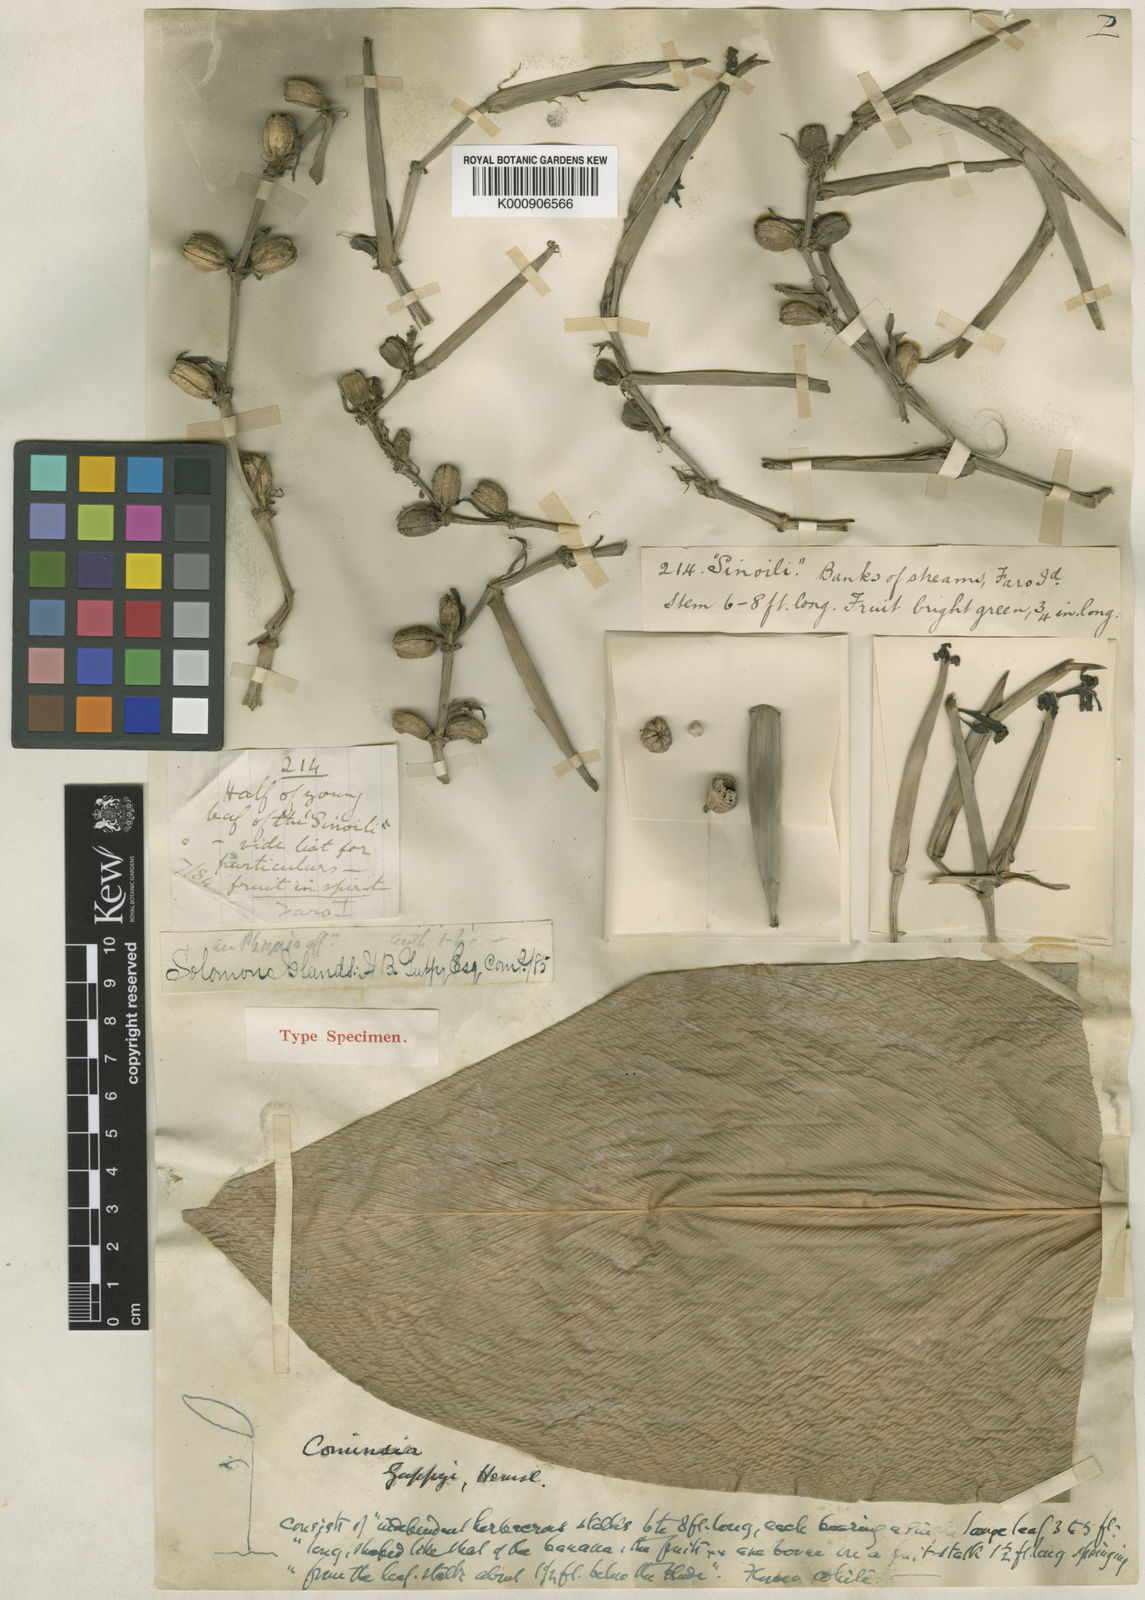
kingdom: Plantae
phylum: Tracheophyta
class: Liliopsida
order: Zingiberales
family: Marantaceae
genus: Phrynium
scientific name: Phrynium giganteum
